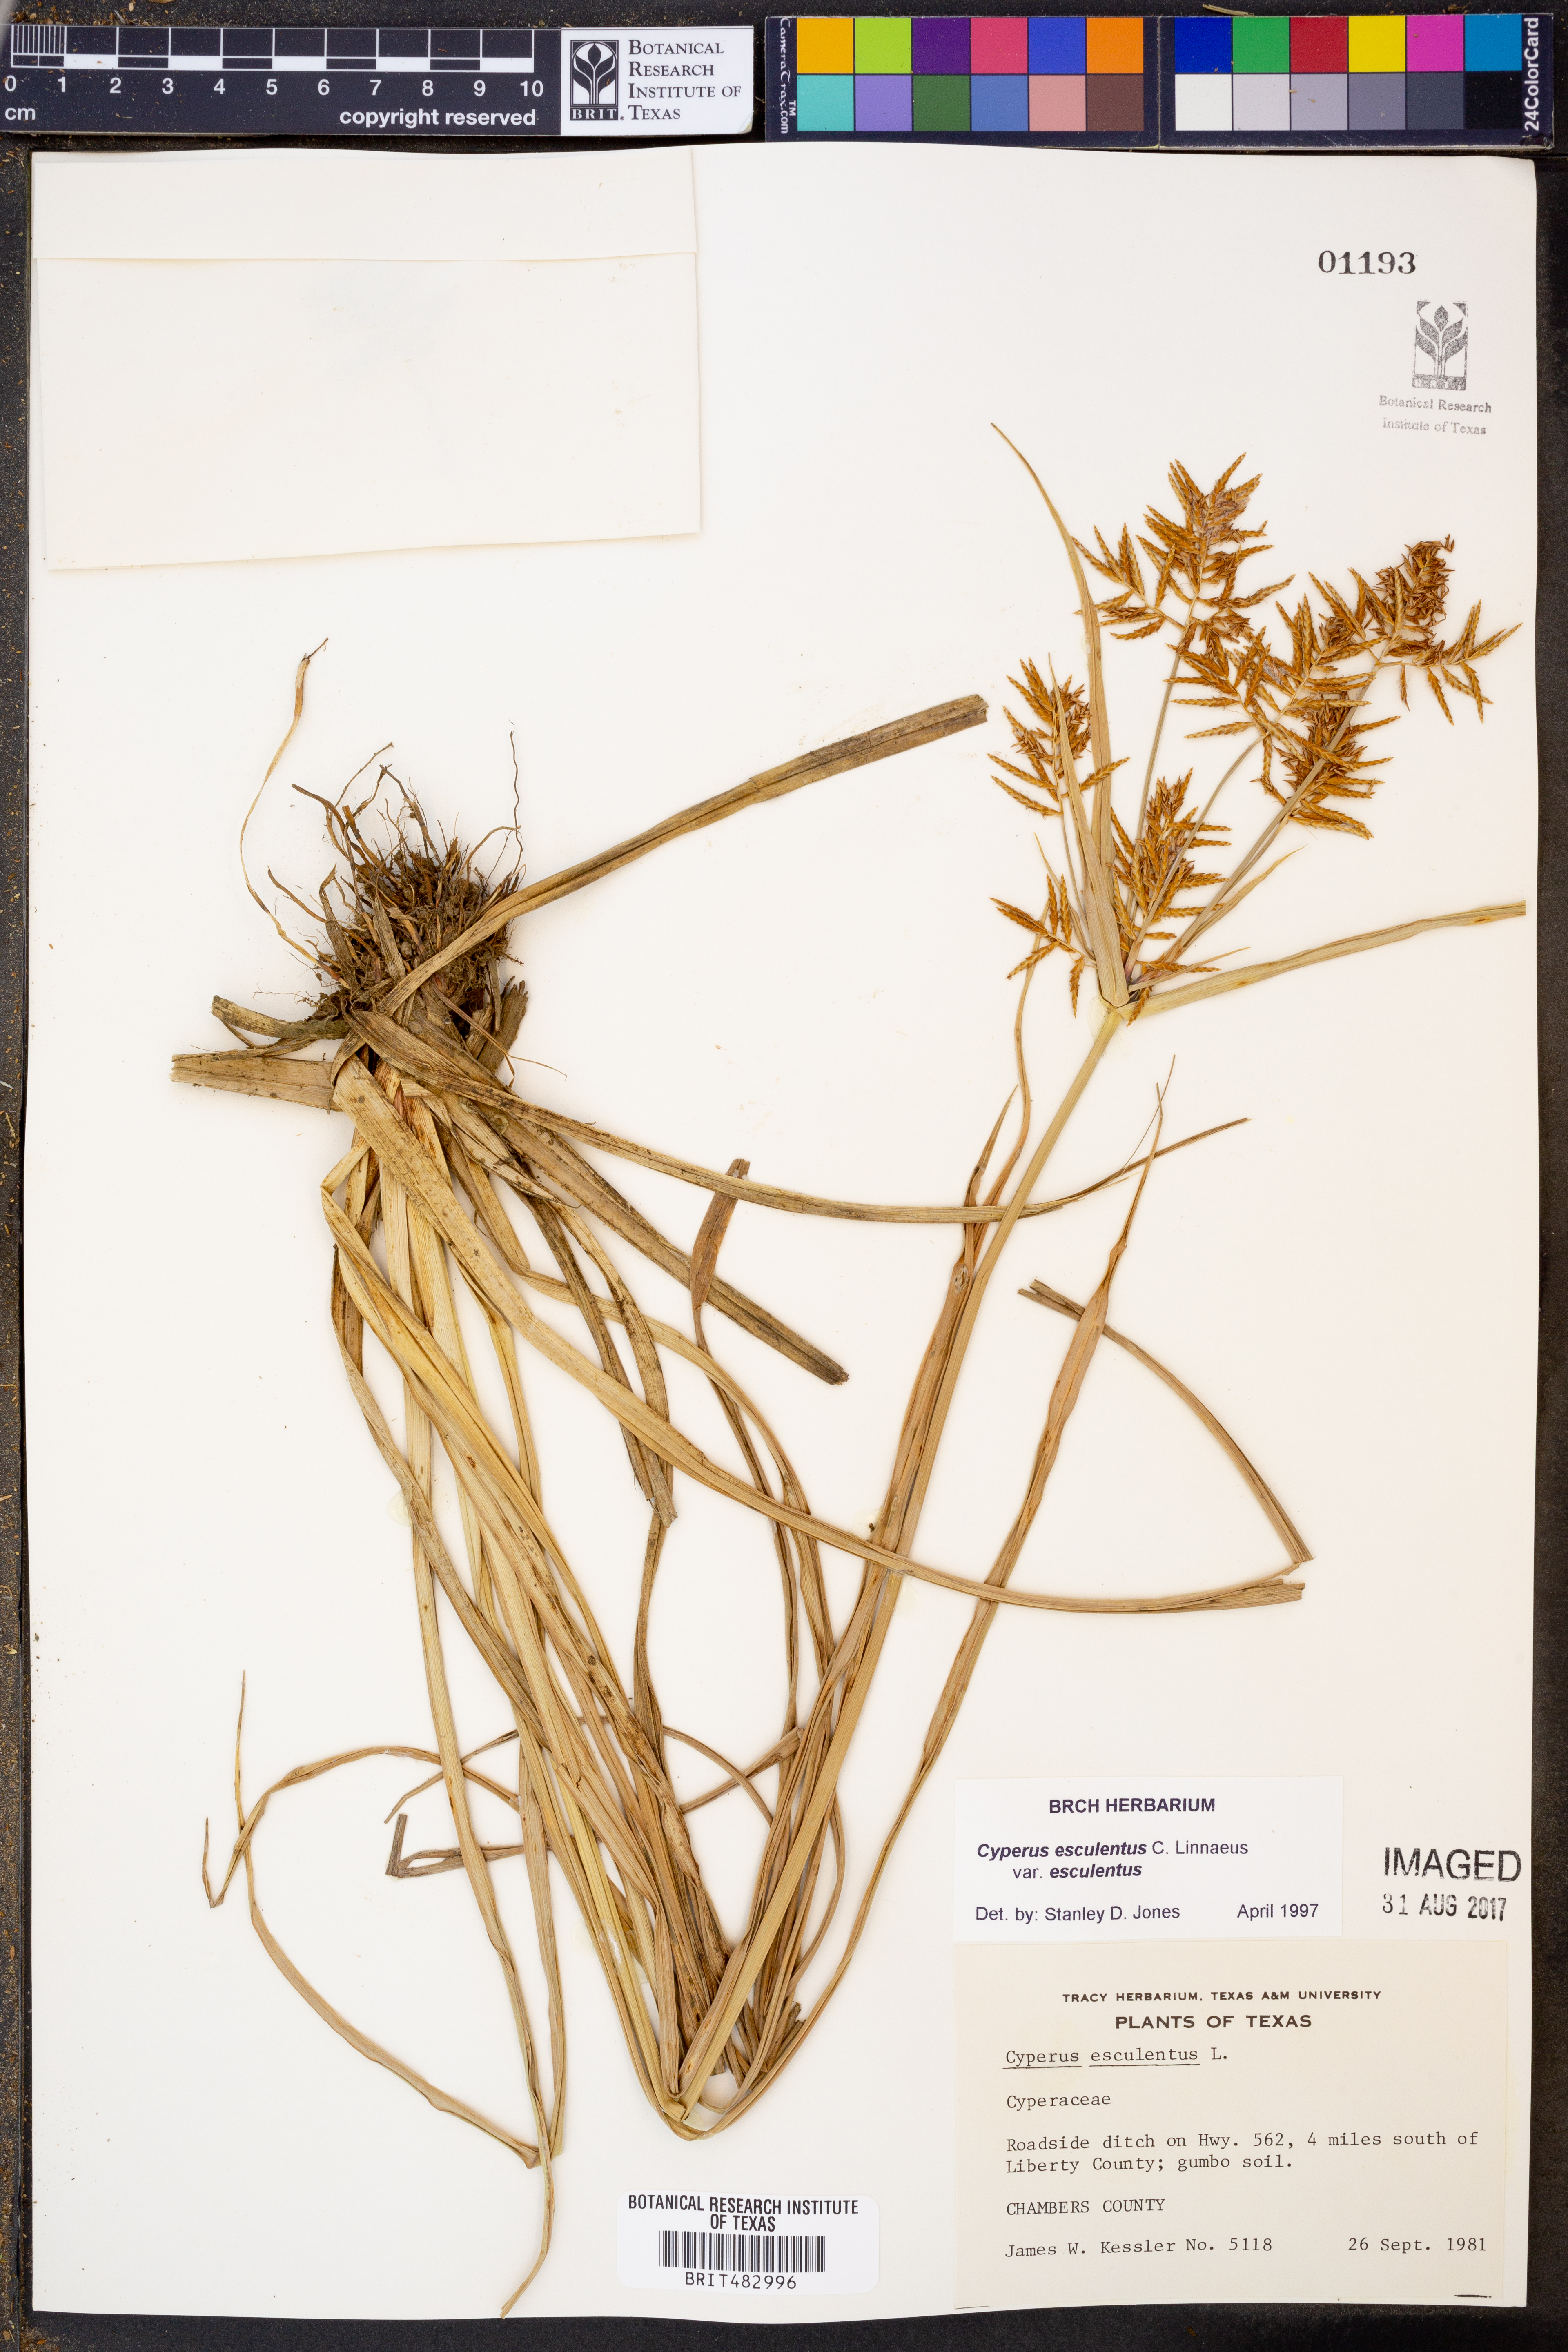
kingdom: Plantae
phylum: Tracheophyta
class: Liliopsida
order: Poales
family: Cyperaceae
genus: Cyperus
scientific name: Cyperus esculentus
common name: Yellow nutsedge
